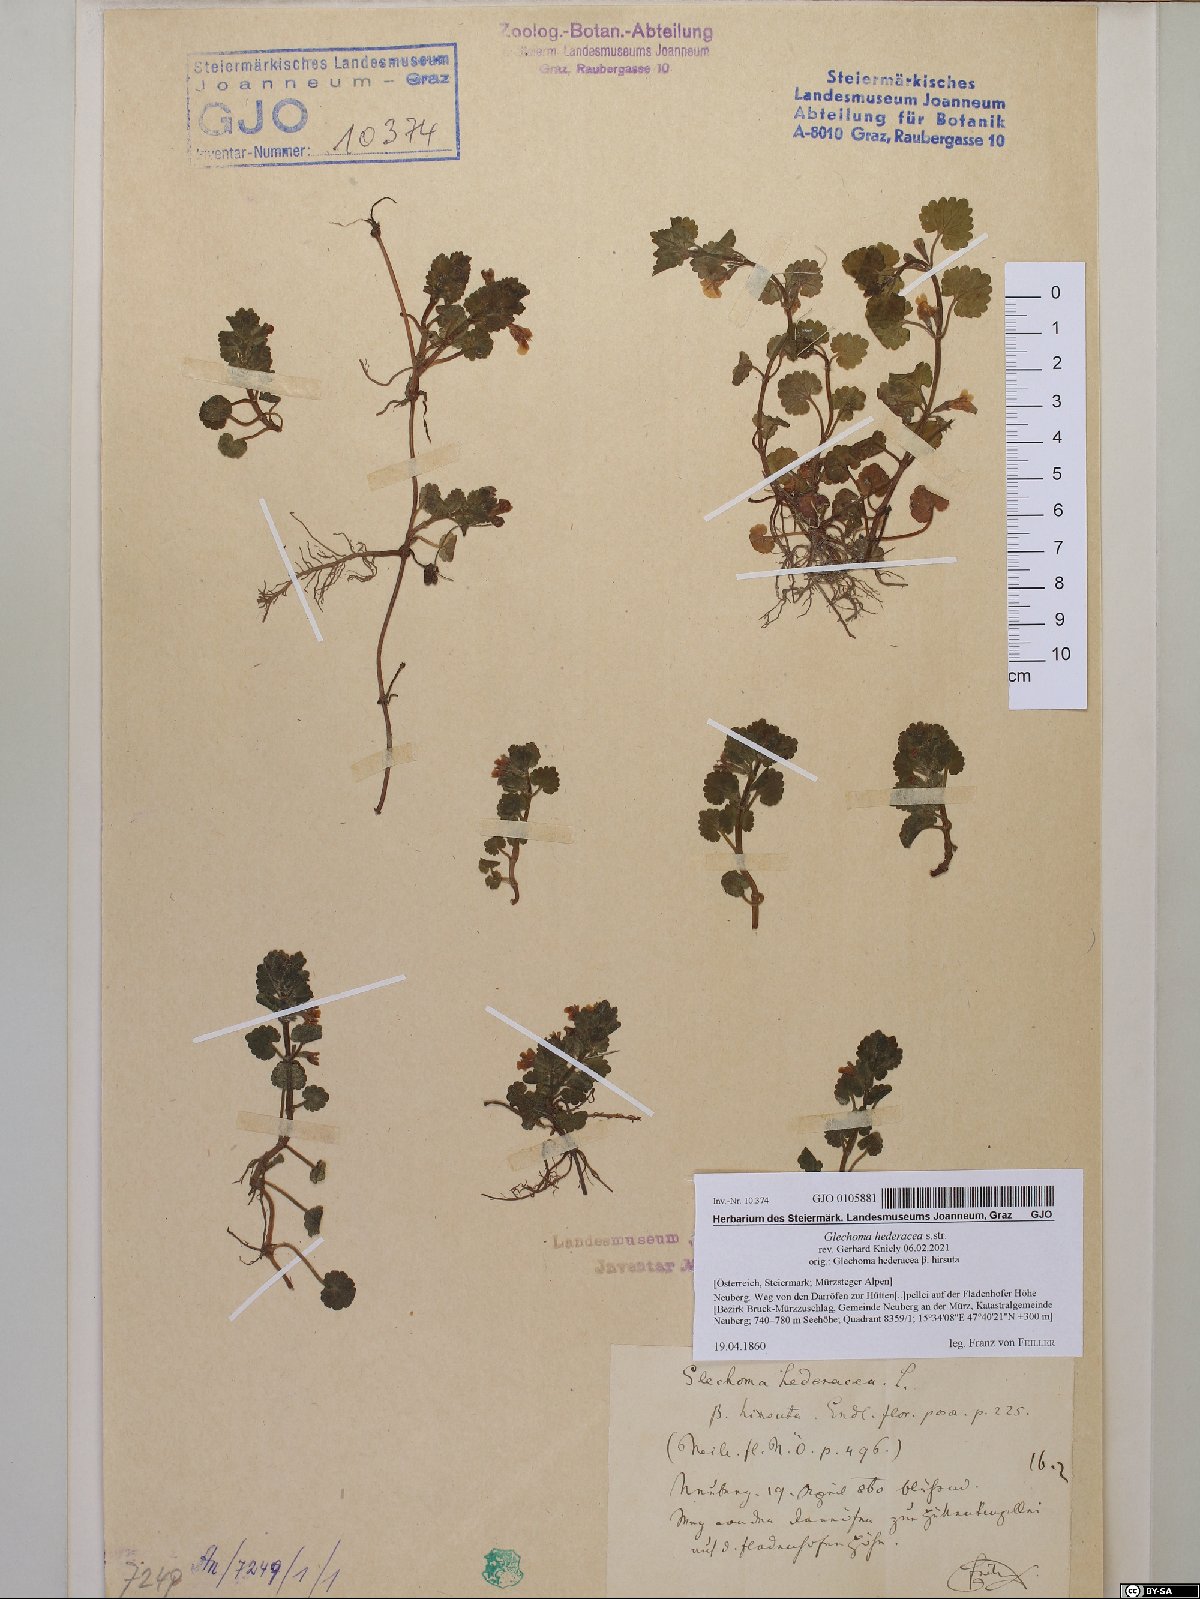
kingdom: Plantae
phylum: Tracheophyta
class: Magnoliopsida
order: Lamiales
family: Lamiaceae
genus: Glechoma
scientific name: Glechoma hederacea
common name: Ground ivy
